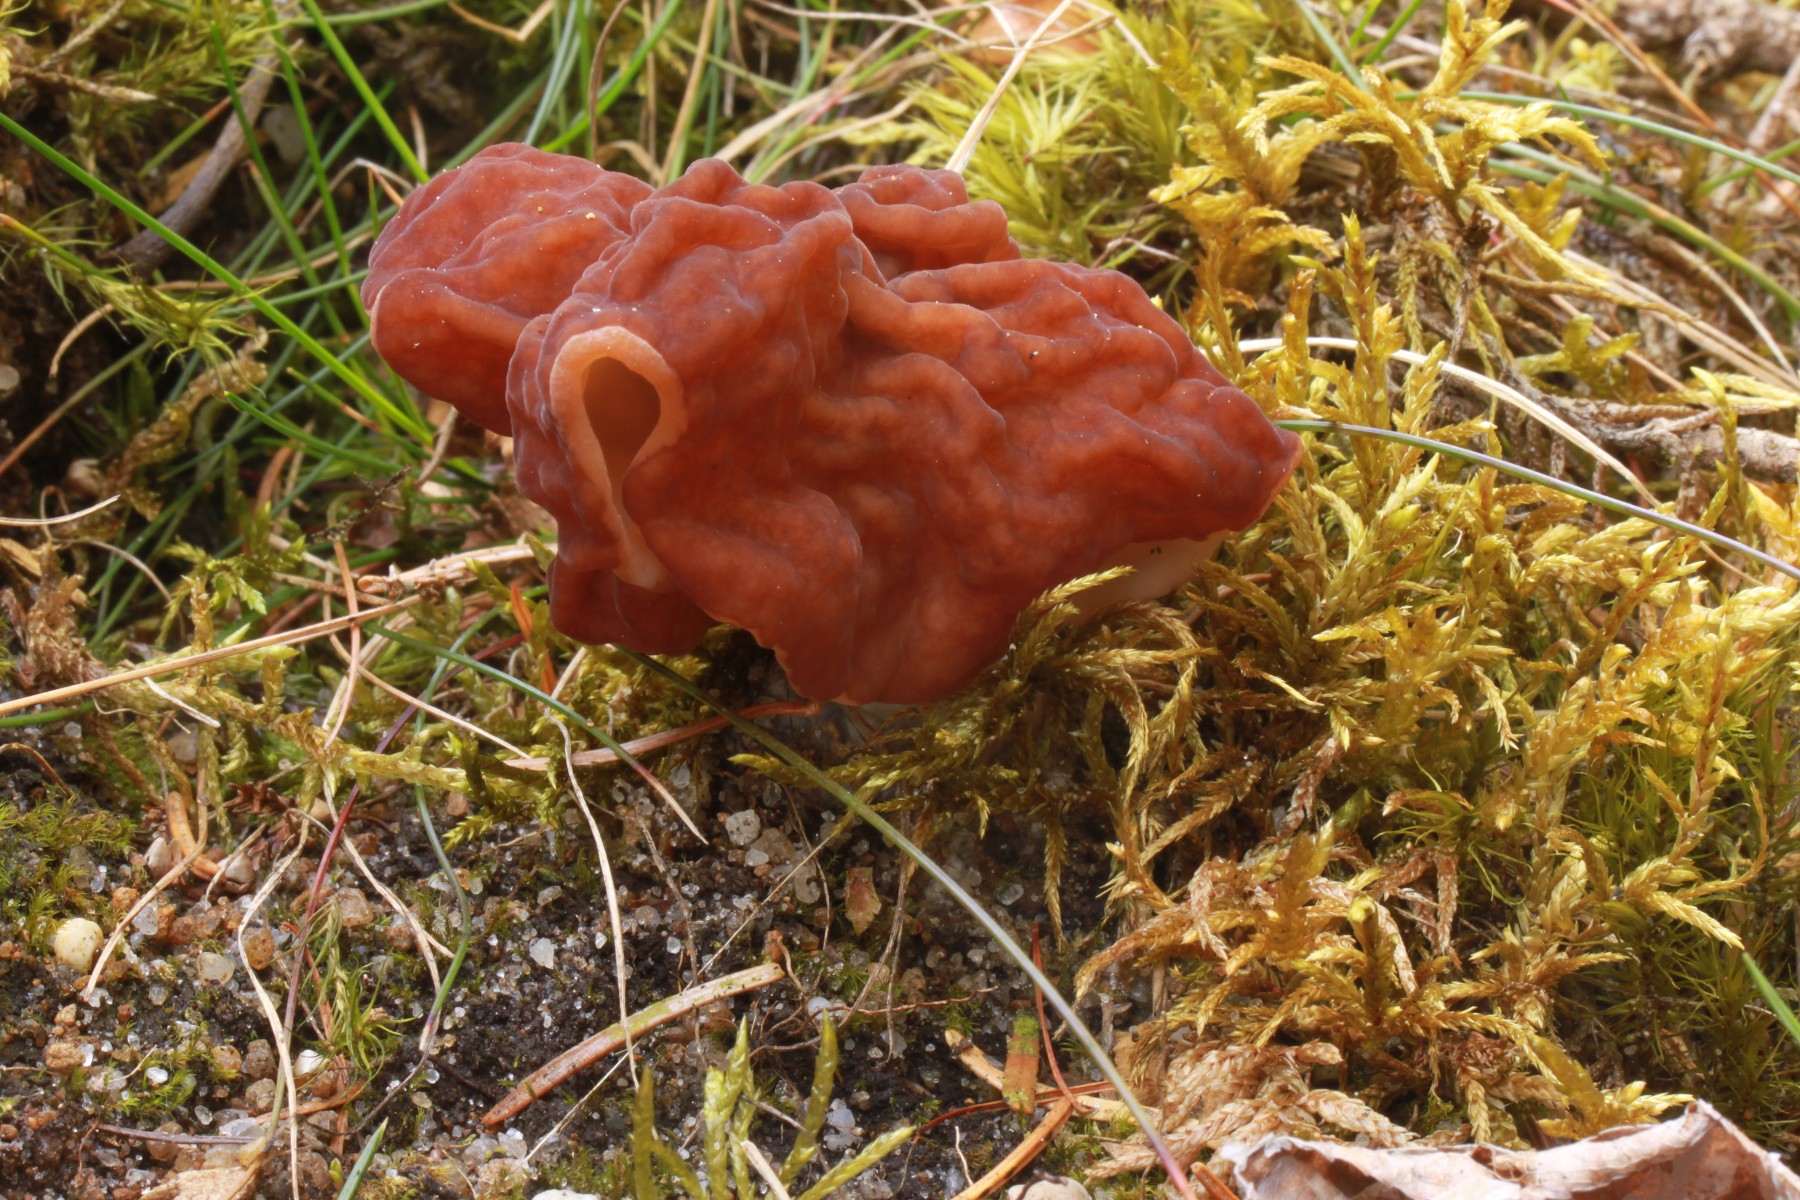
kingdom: Fungi
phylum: Ascomycota
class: Pezizomycetes
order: Pezizales
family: Discinaceae
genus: Gyromitra
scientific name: Gyromitra esculenta
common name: ægte stenmorkel
